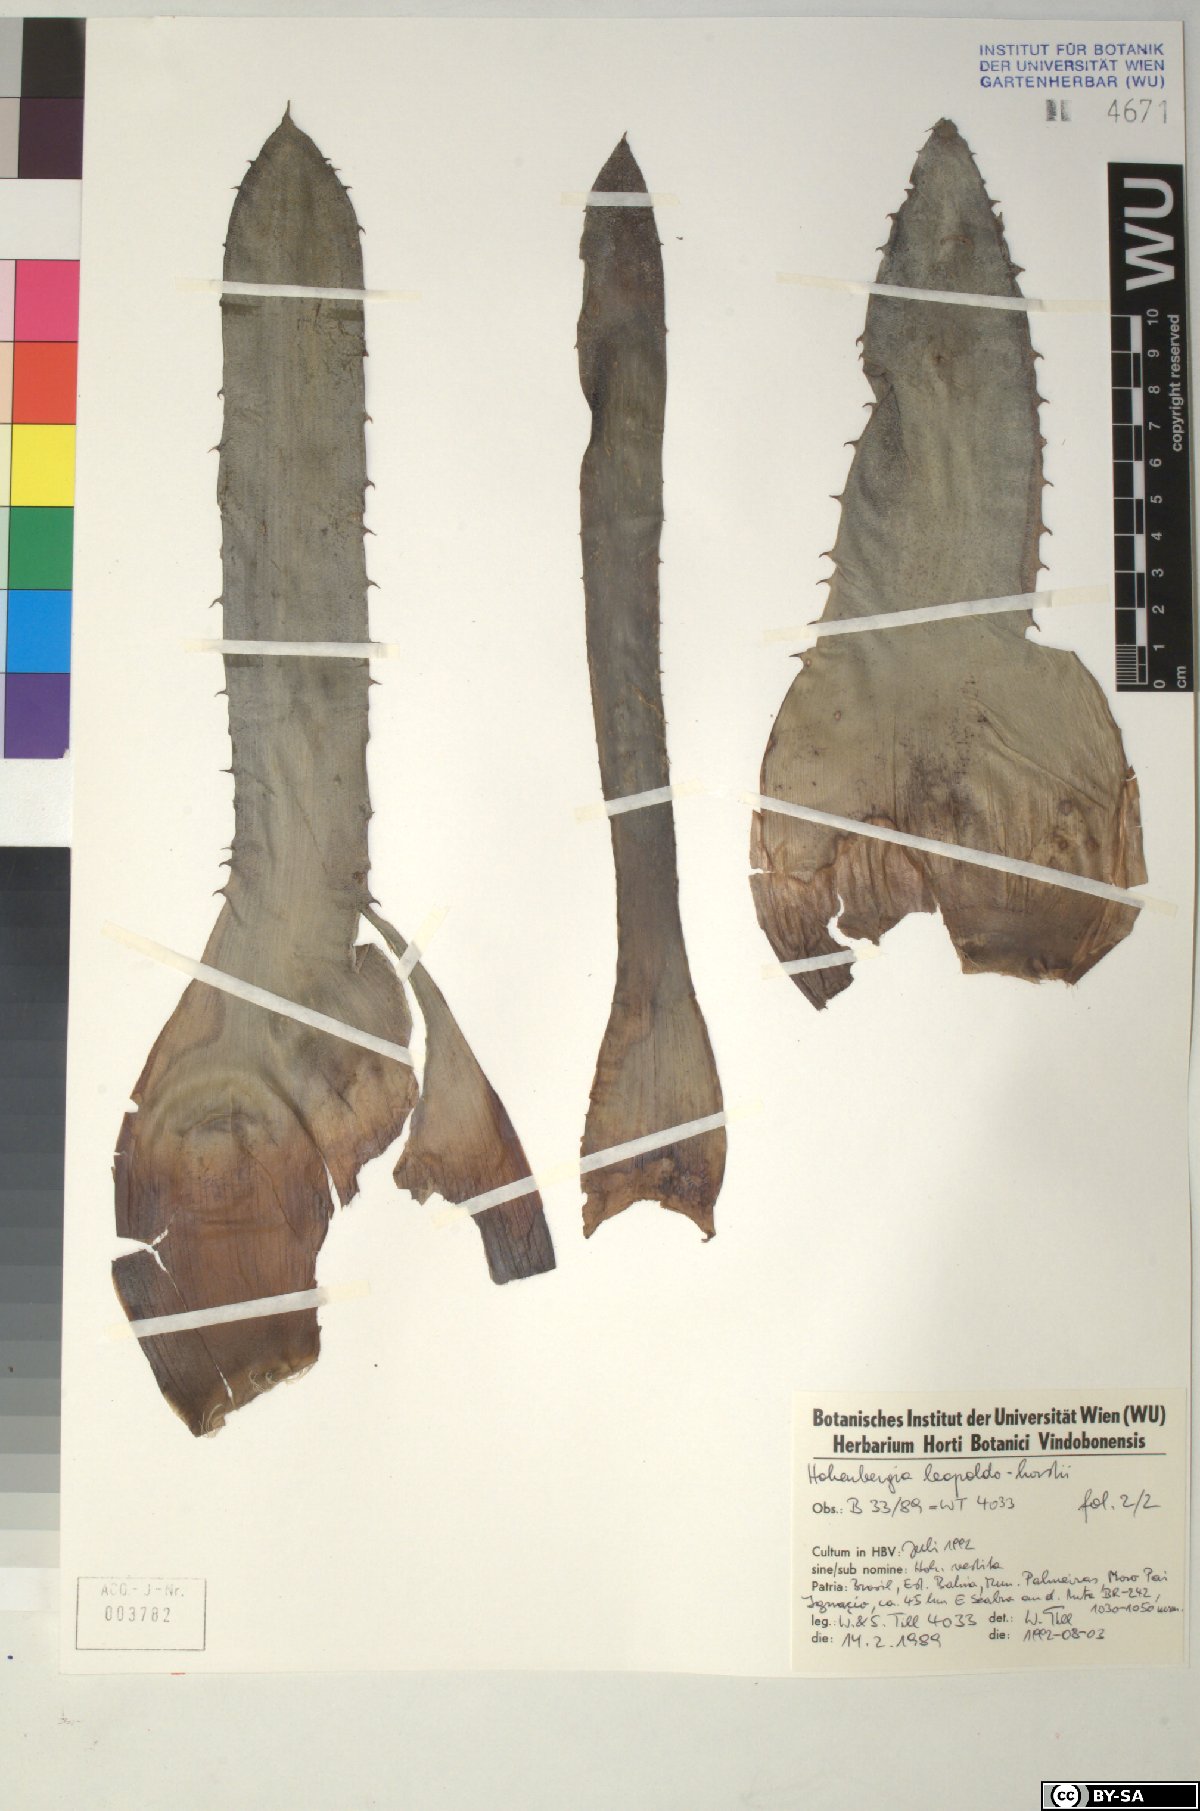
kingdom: Plantae
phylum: Tracheophyta
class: Liliopsida
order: Poales
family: Bromeliaceae
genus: Hohenbergia
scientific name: Hohenbergia leopoldo-horstii
